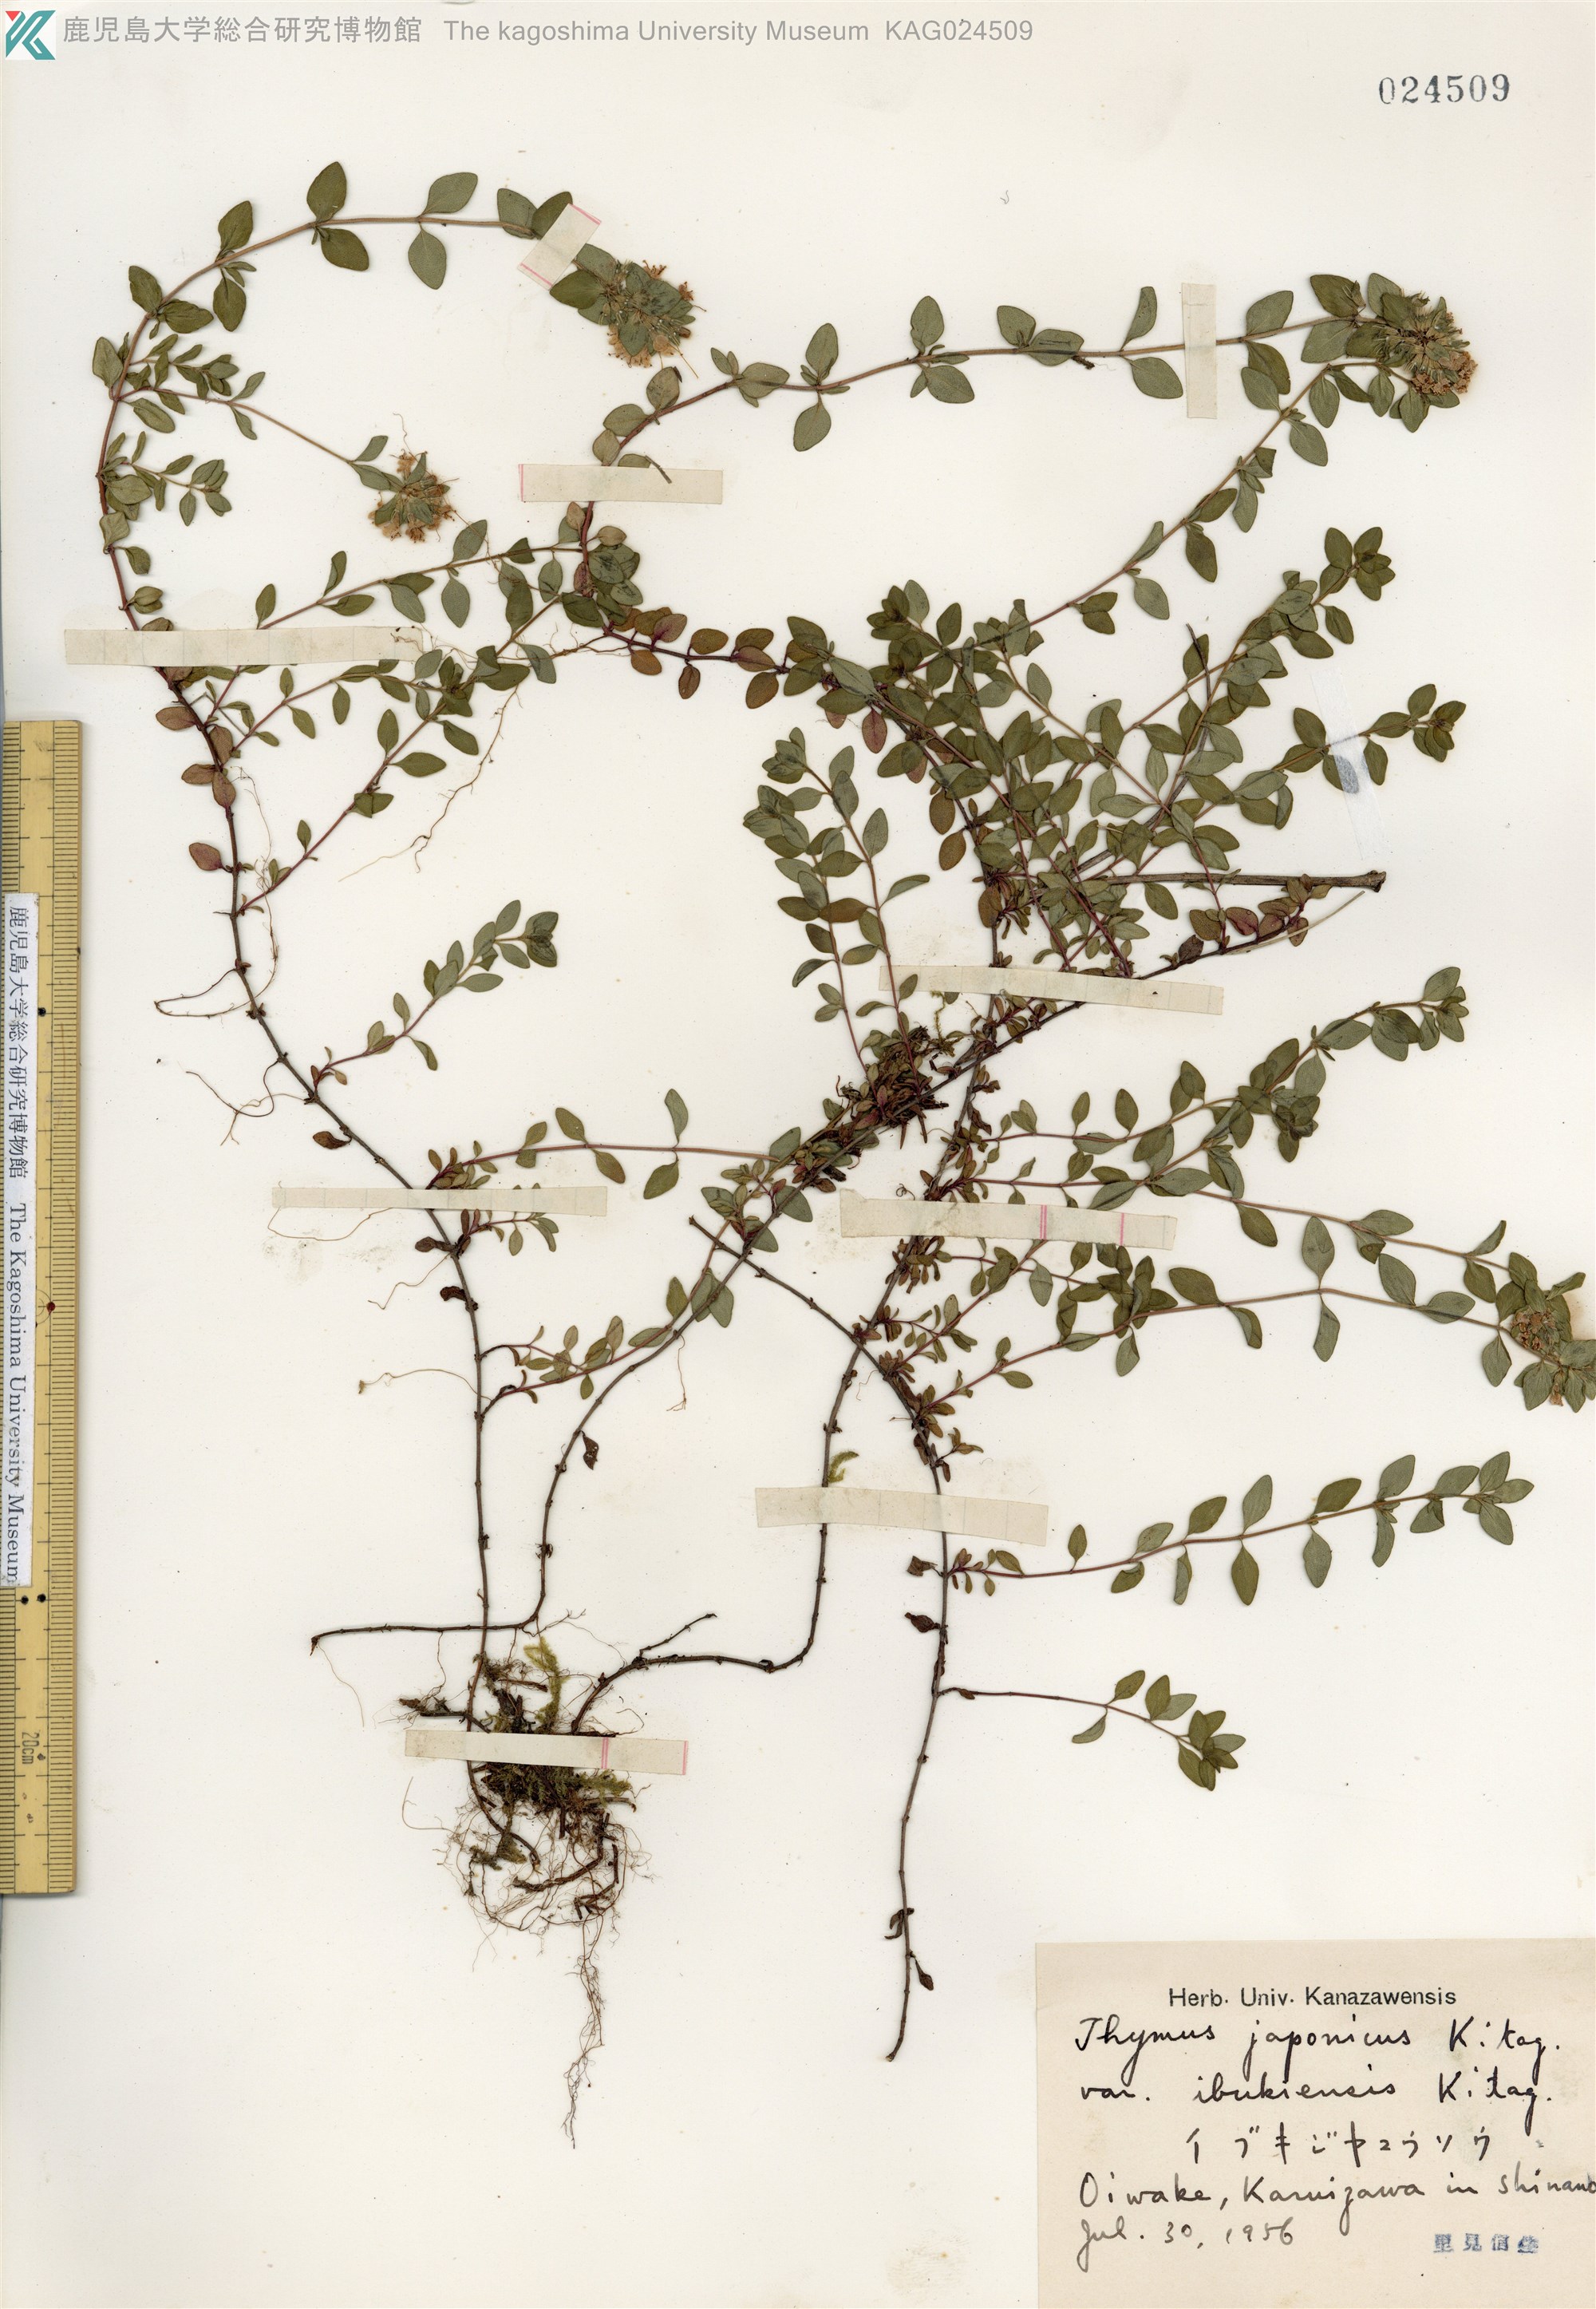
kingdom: Plantae
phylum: Tracheophyta
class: Magnoliopsida
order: Lamiales
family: Lamiaceae
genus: Thymus
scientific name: Thymus quinquecostatus
